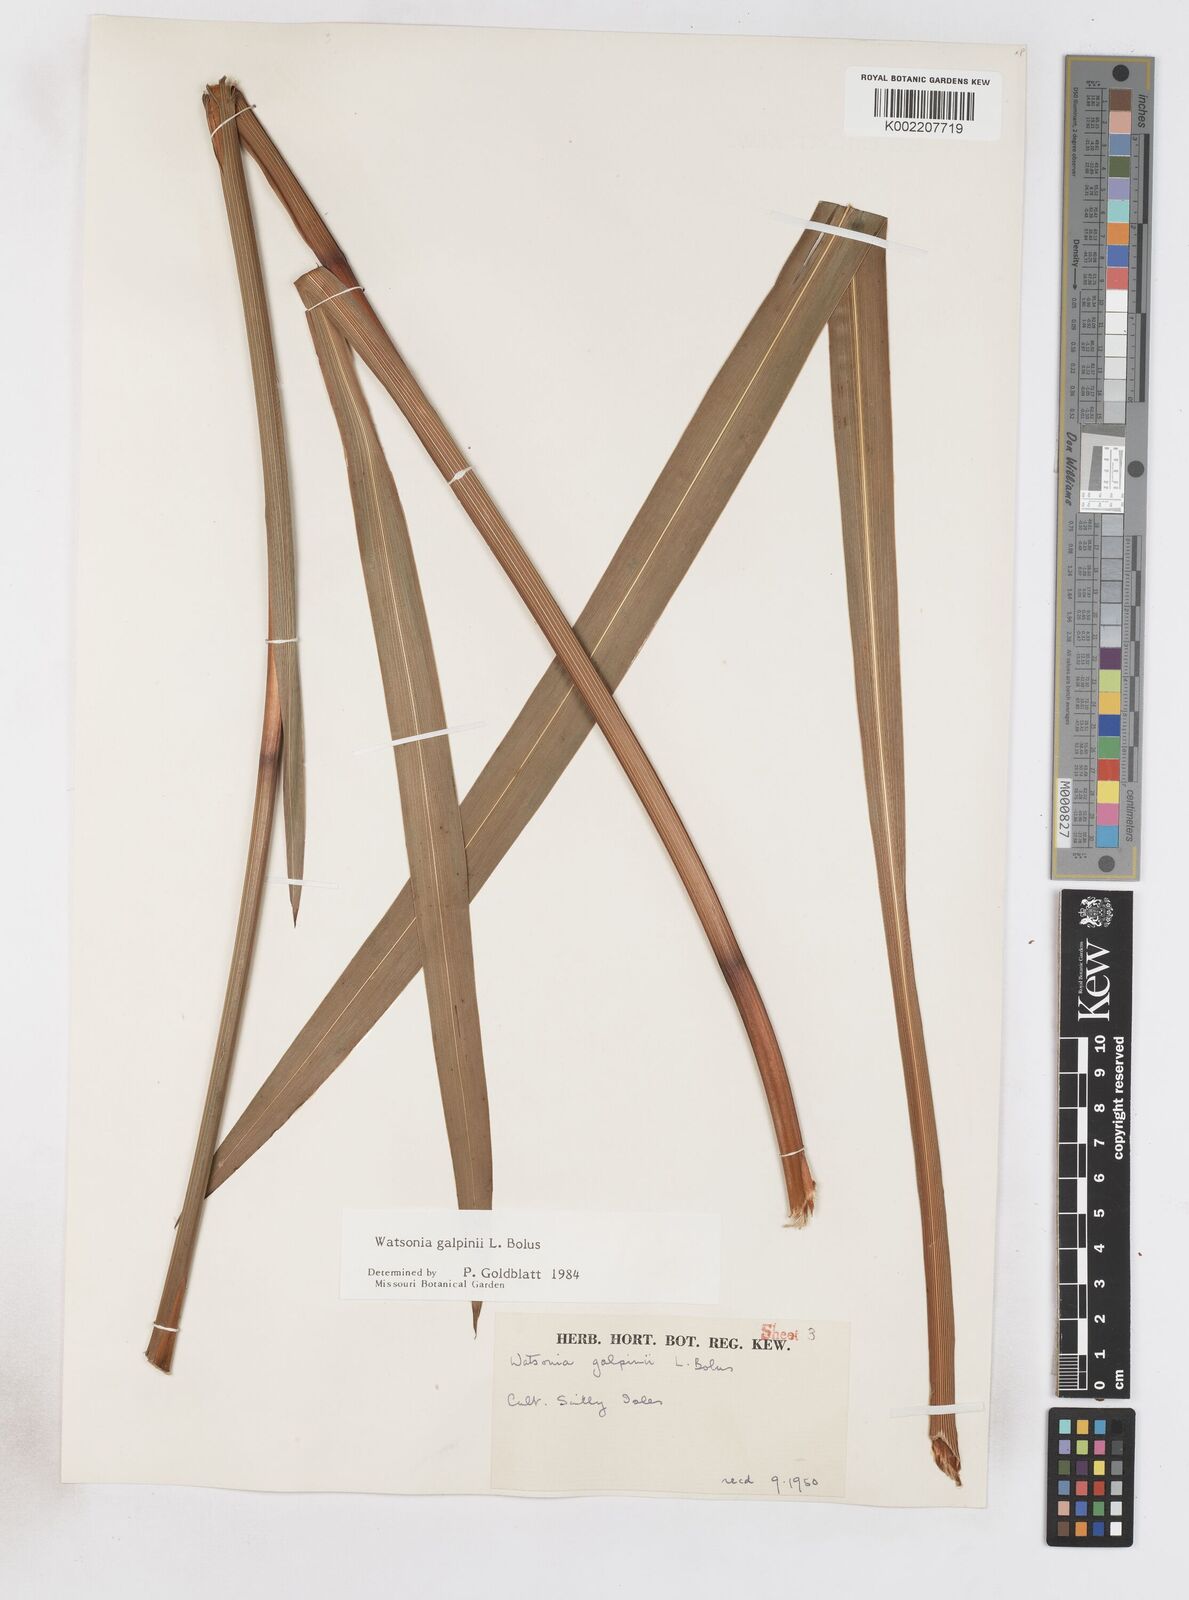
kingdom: Plantae
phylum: Tracheophyta
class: Liliopsida
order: Asparagales
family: Iridaceae
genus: Watsonia
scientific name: Watsonia galpinii
